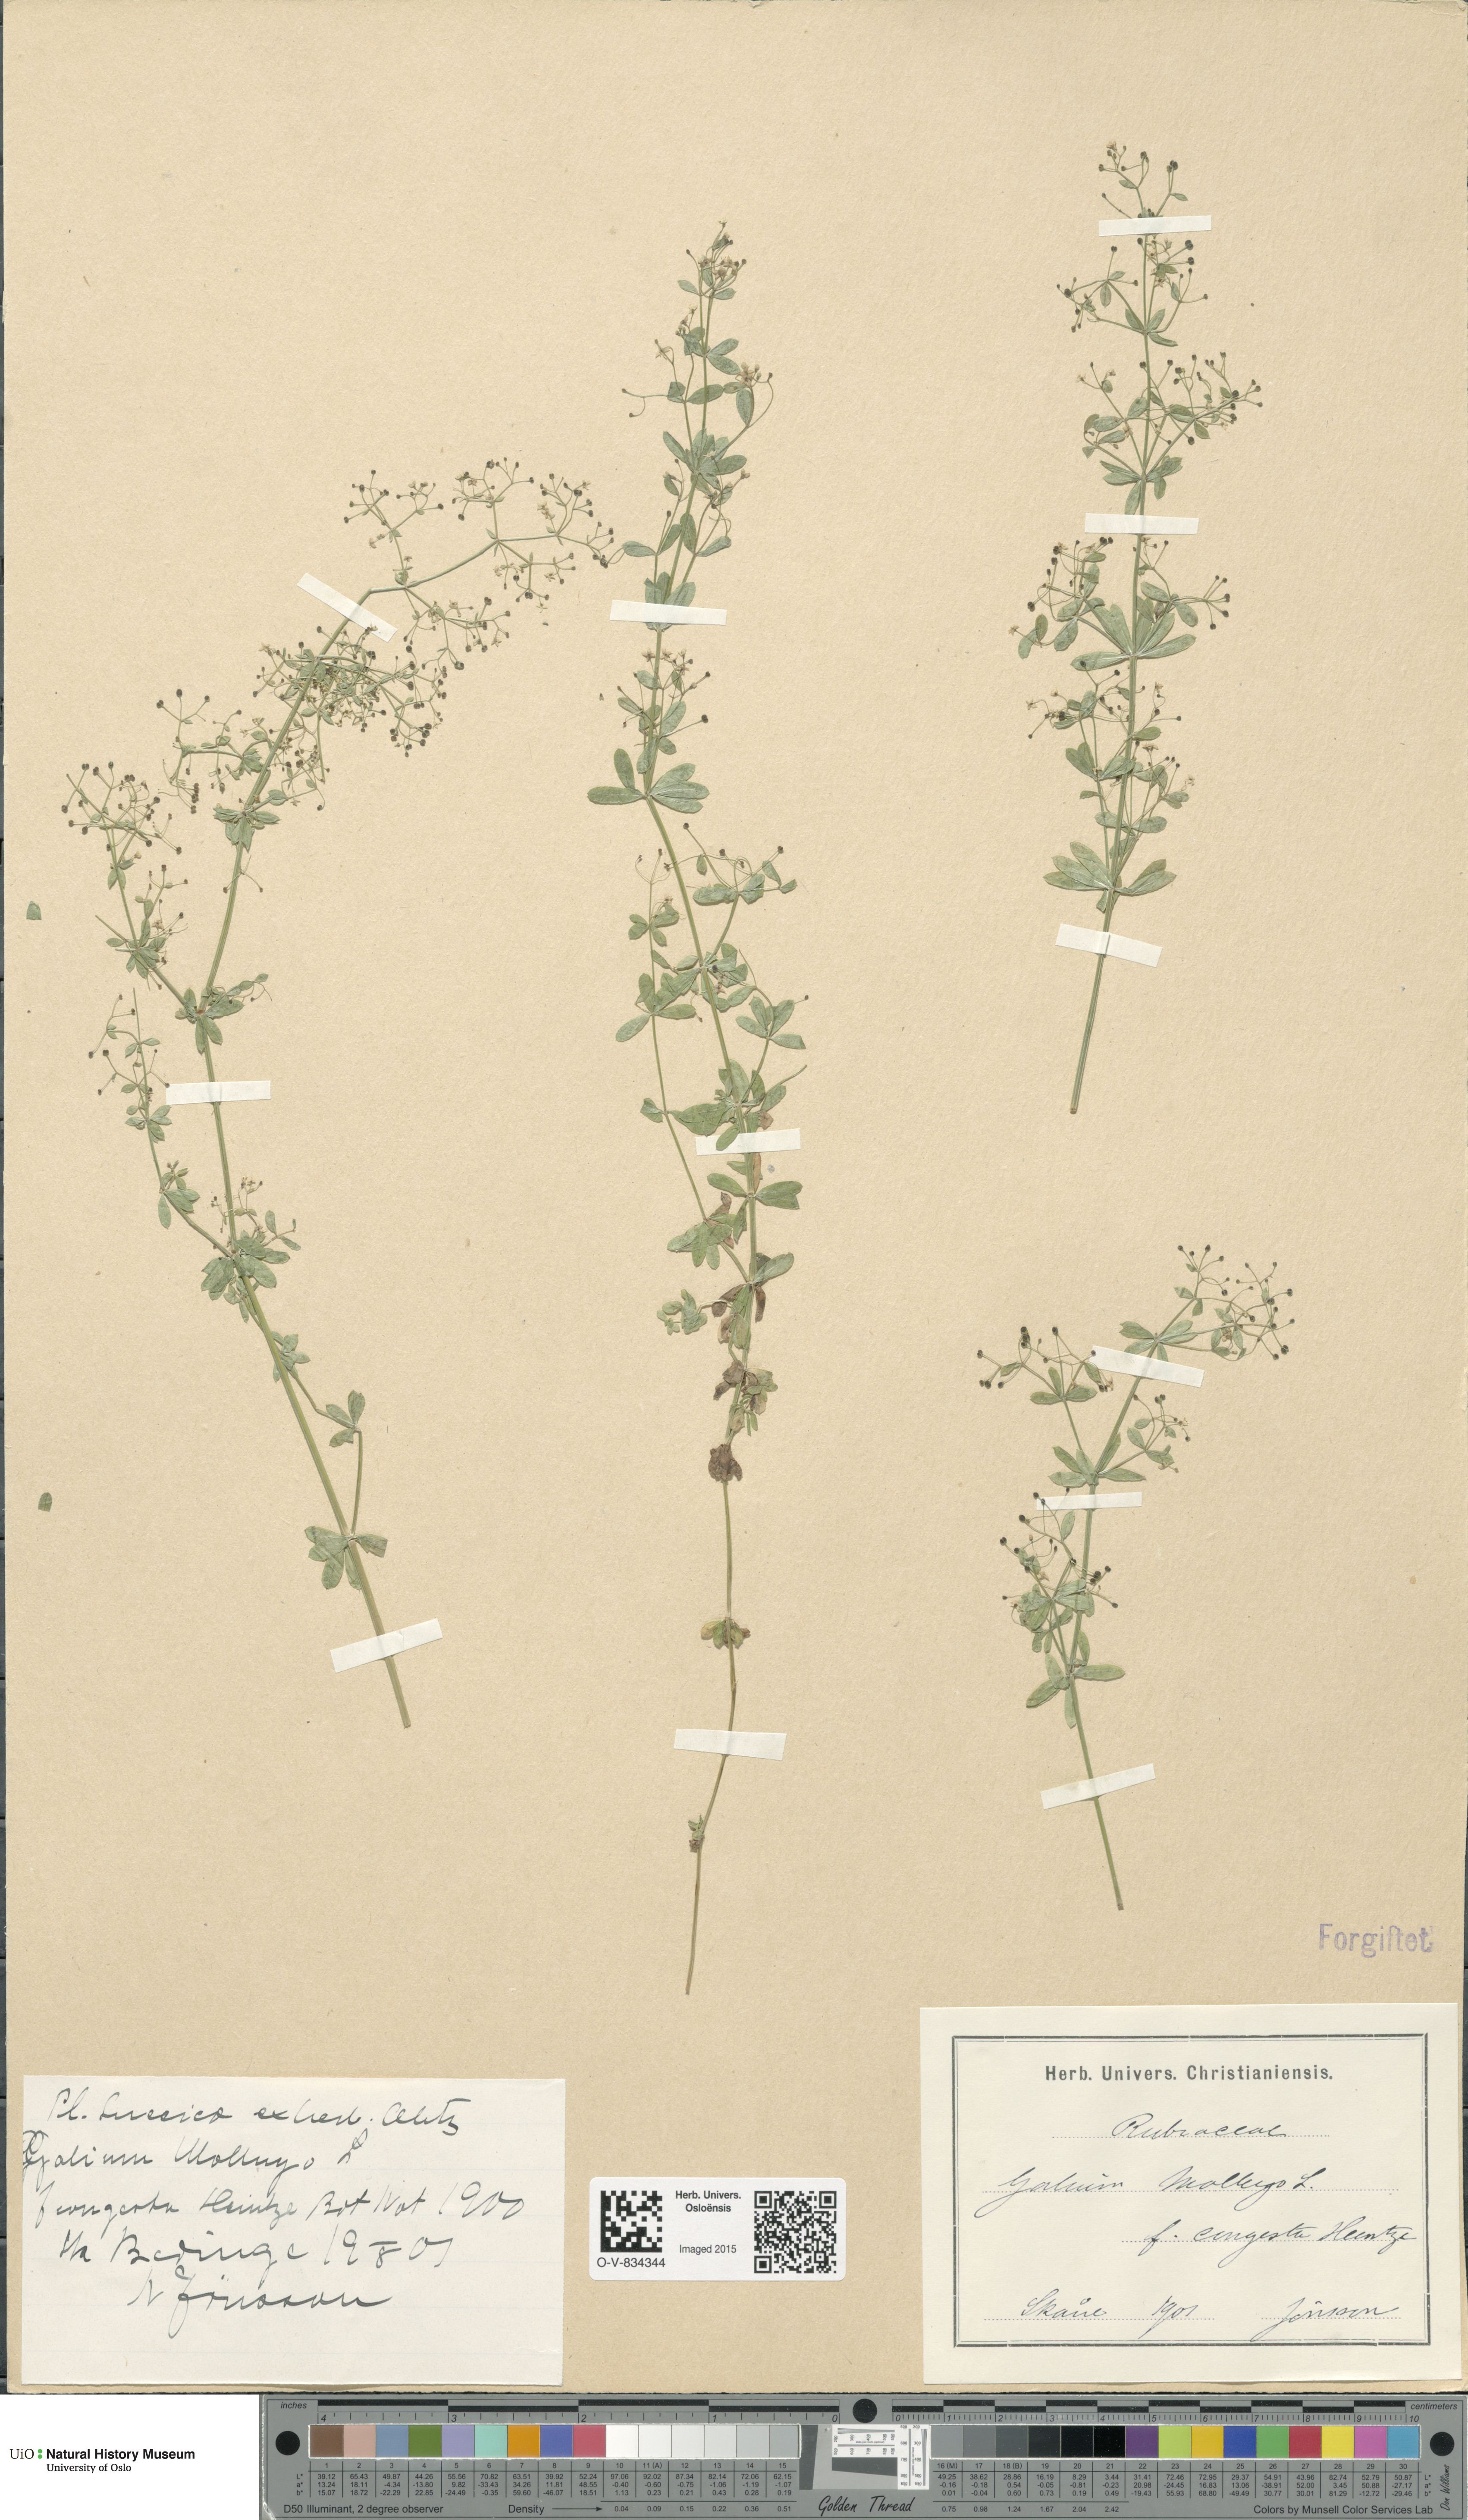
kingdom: Plantae
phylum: Tracheophyta
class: Magnoliopsida
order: Gentianales
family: Rubiaceae
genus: Galium
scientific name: Galium mollugo
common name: Hedge bedstraw
